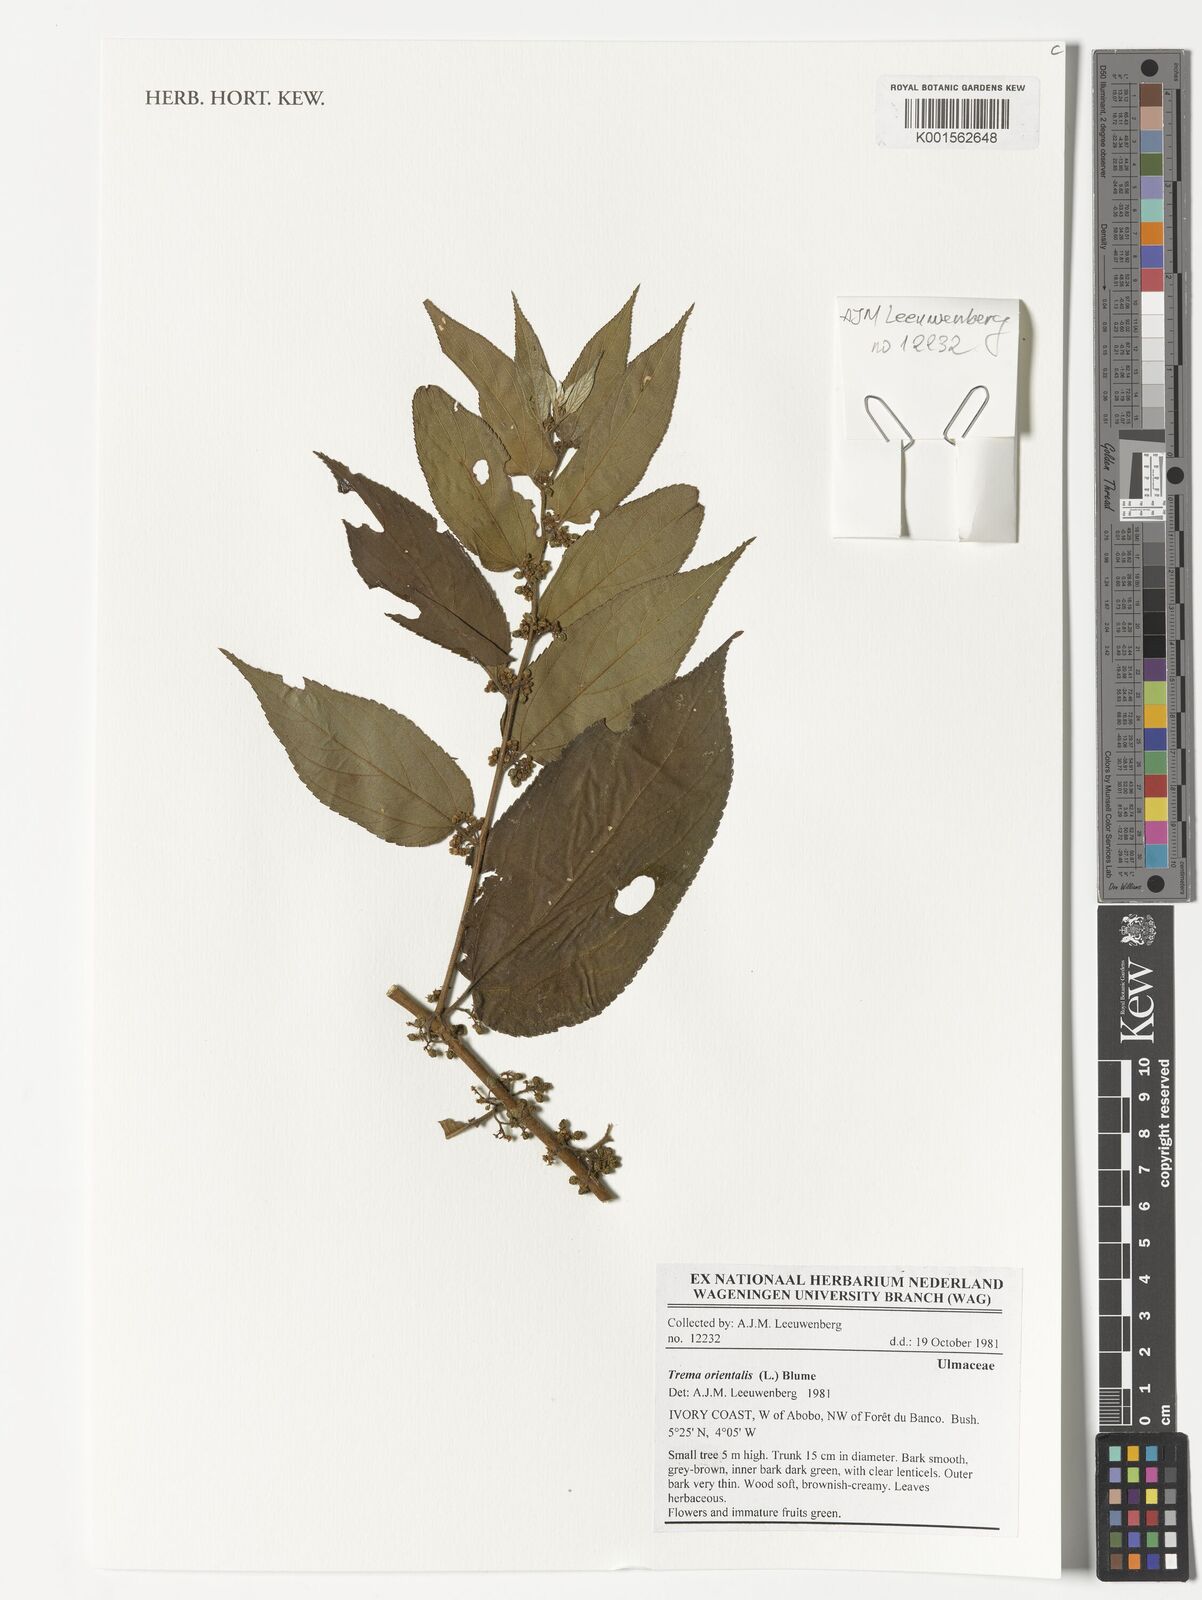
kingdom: Plantae
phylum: Tracheophyta
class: Magnoliopsida
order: Rosales
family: Cannabaceae
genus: Trema
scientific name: Trema orientale
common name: Indian charcoal tree
